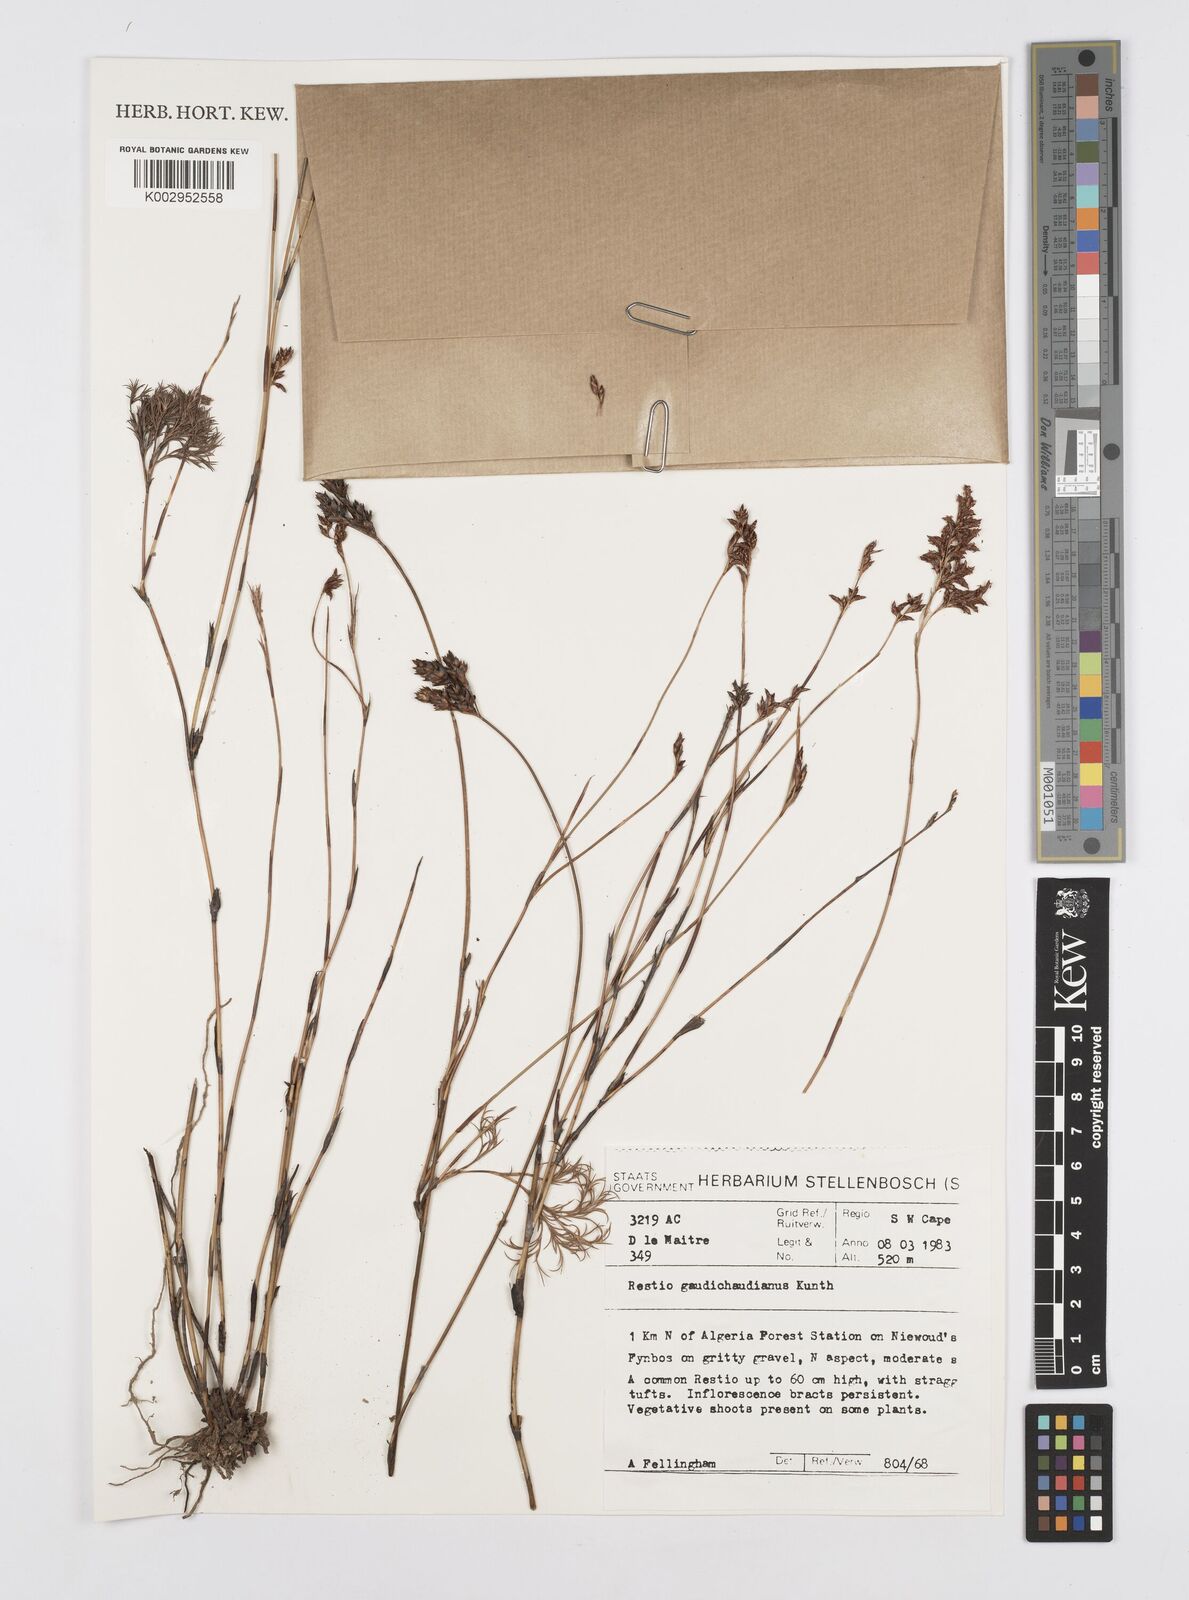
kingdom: Plantae
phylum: Tracheophyta
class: Liliopsida
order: Poales
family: Restionaceae
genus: Restio
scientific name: Restio gaudichaudianus
